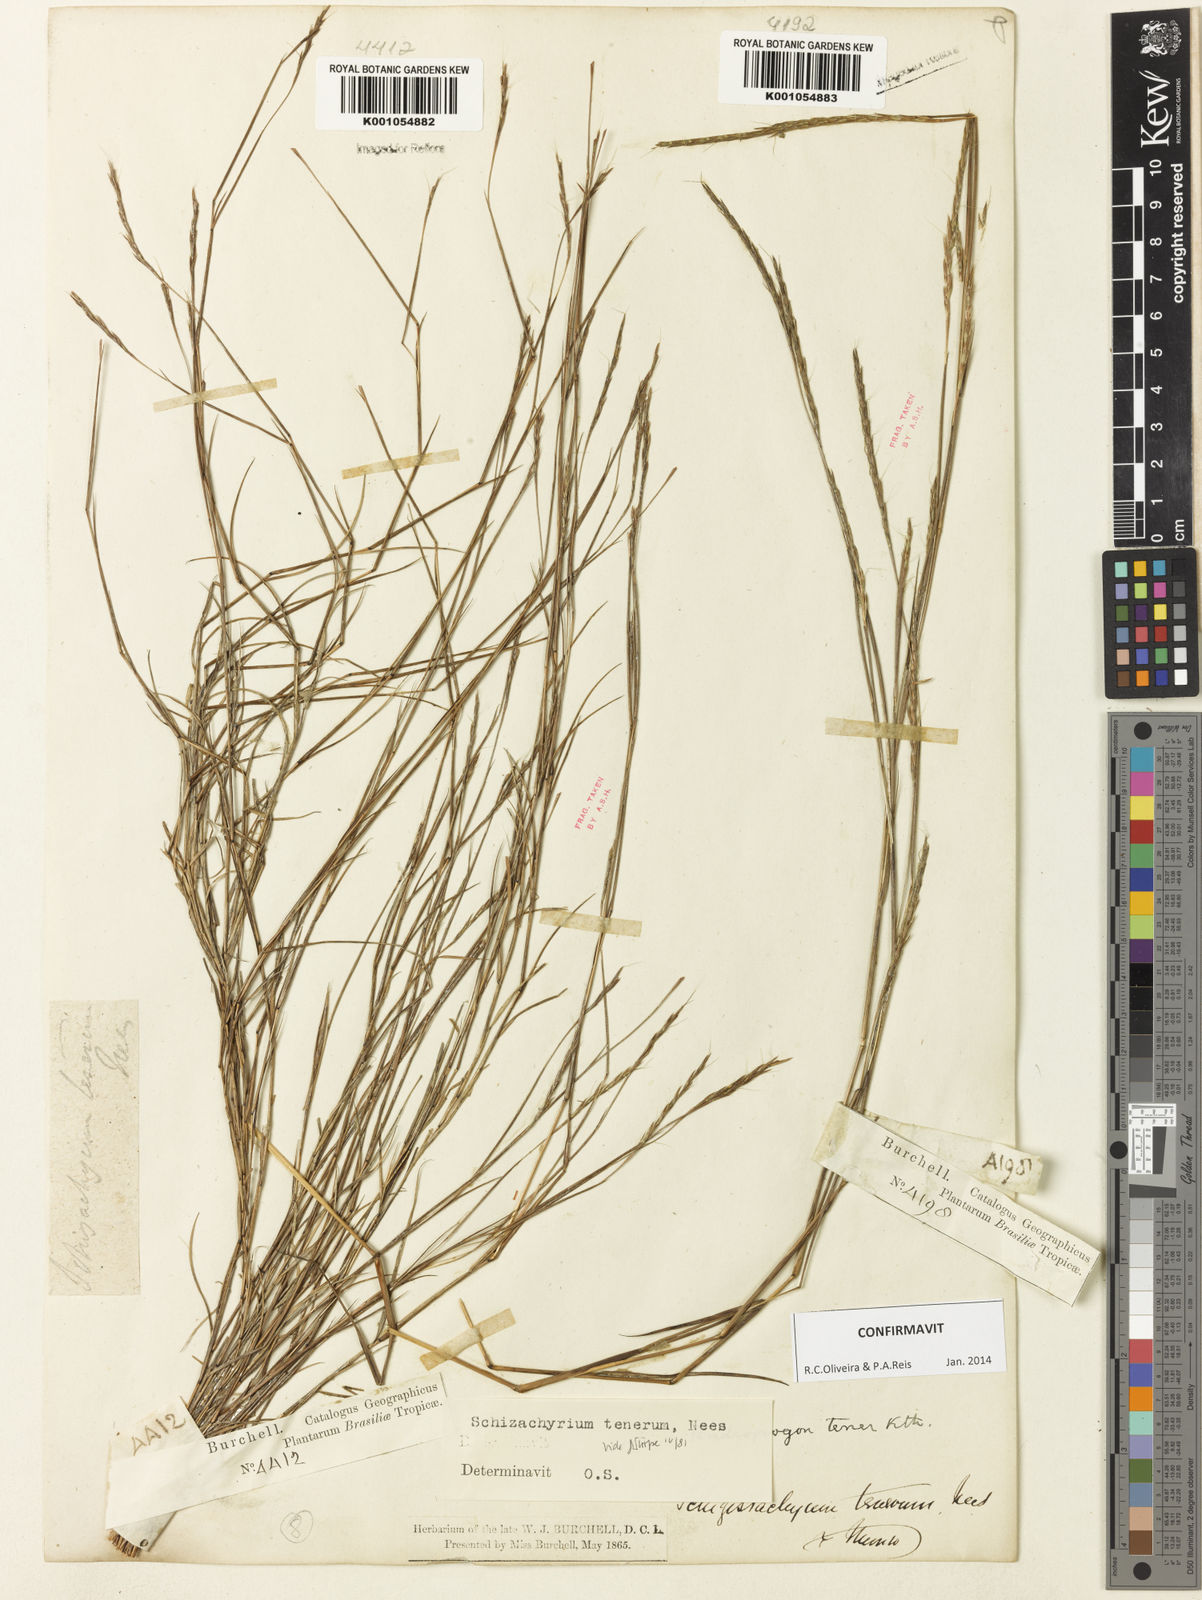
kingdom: Plantae
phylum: Tracheophyta
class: Liliopsida
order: Poales
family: Poaceae
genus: Andropogon
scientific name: Andropogon tener
